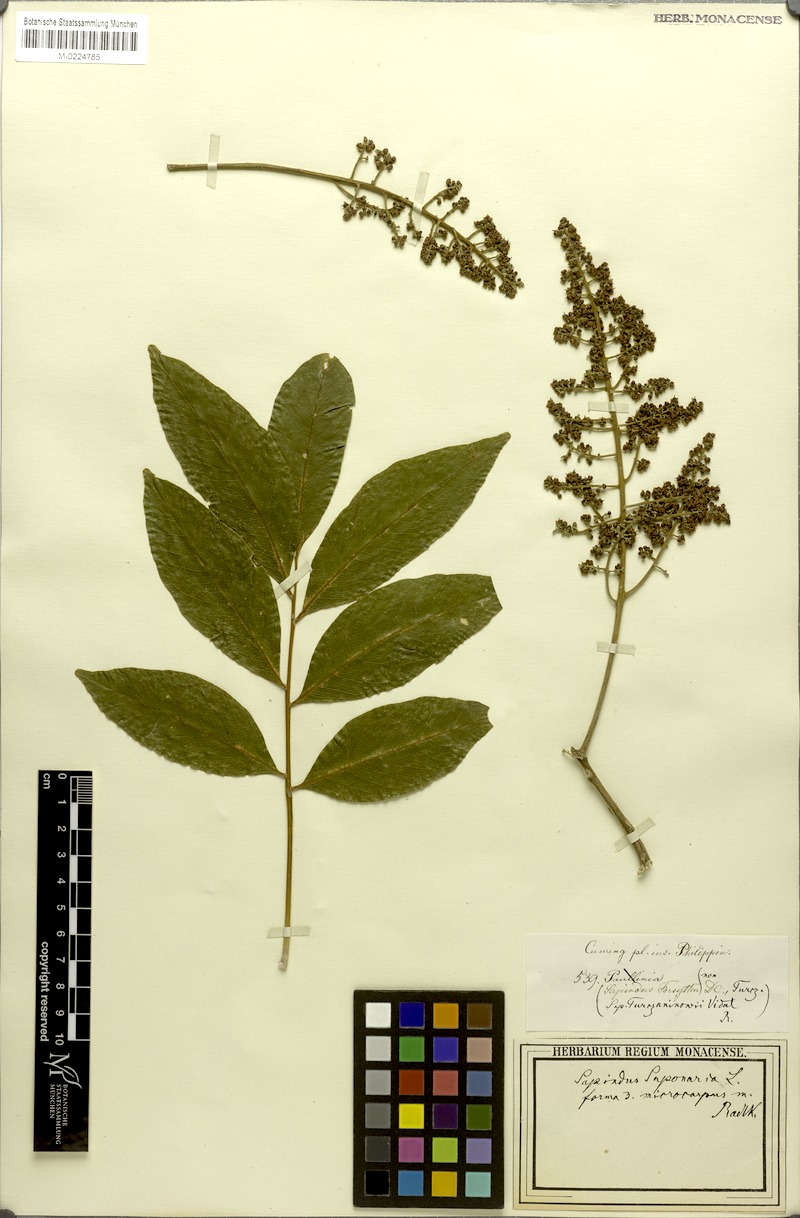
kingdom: Plantae
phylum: Tracheophyta
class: Magnoliopsida
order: Sapindales
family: Sapindaceae
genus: Sapindus
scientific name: Sapindus saponaria
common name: Wingleaf soapberry
